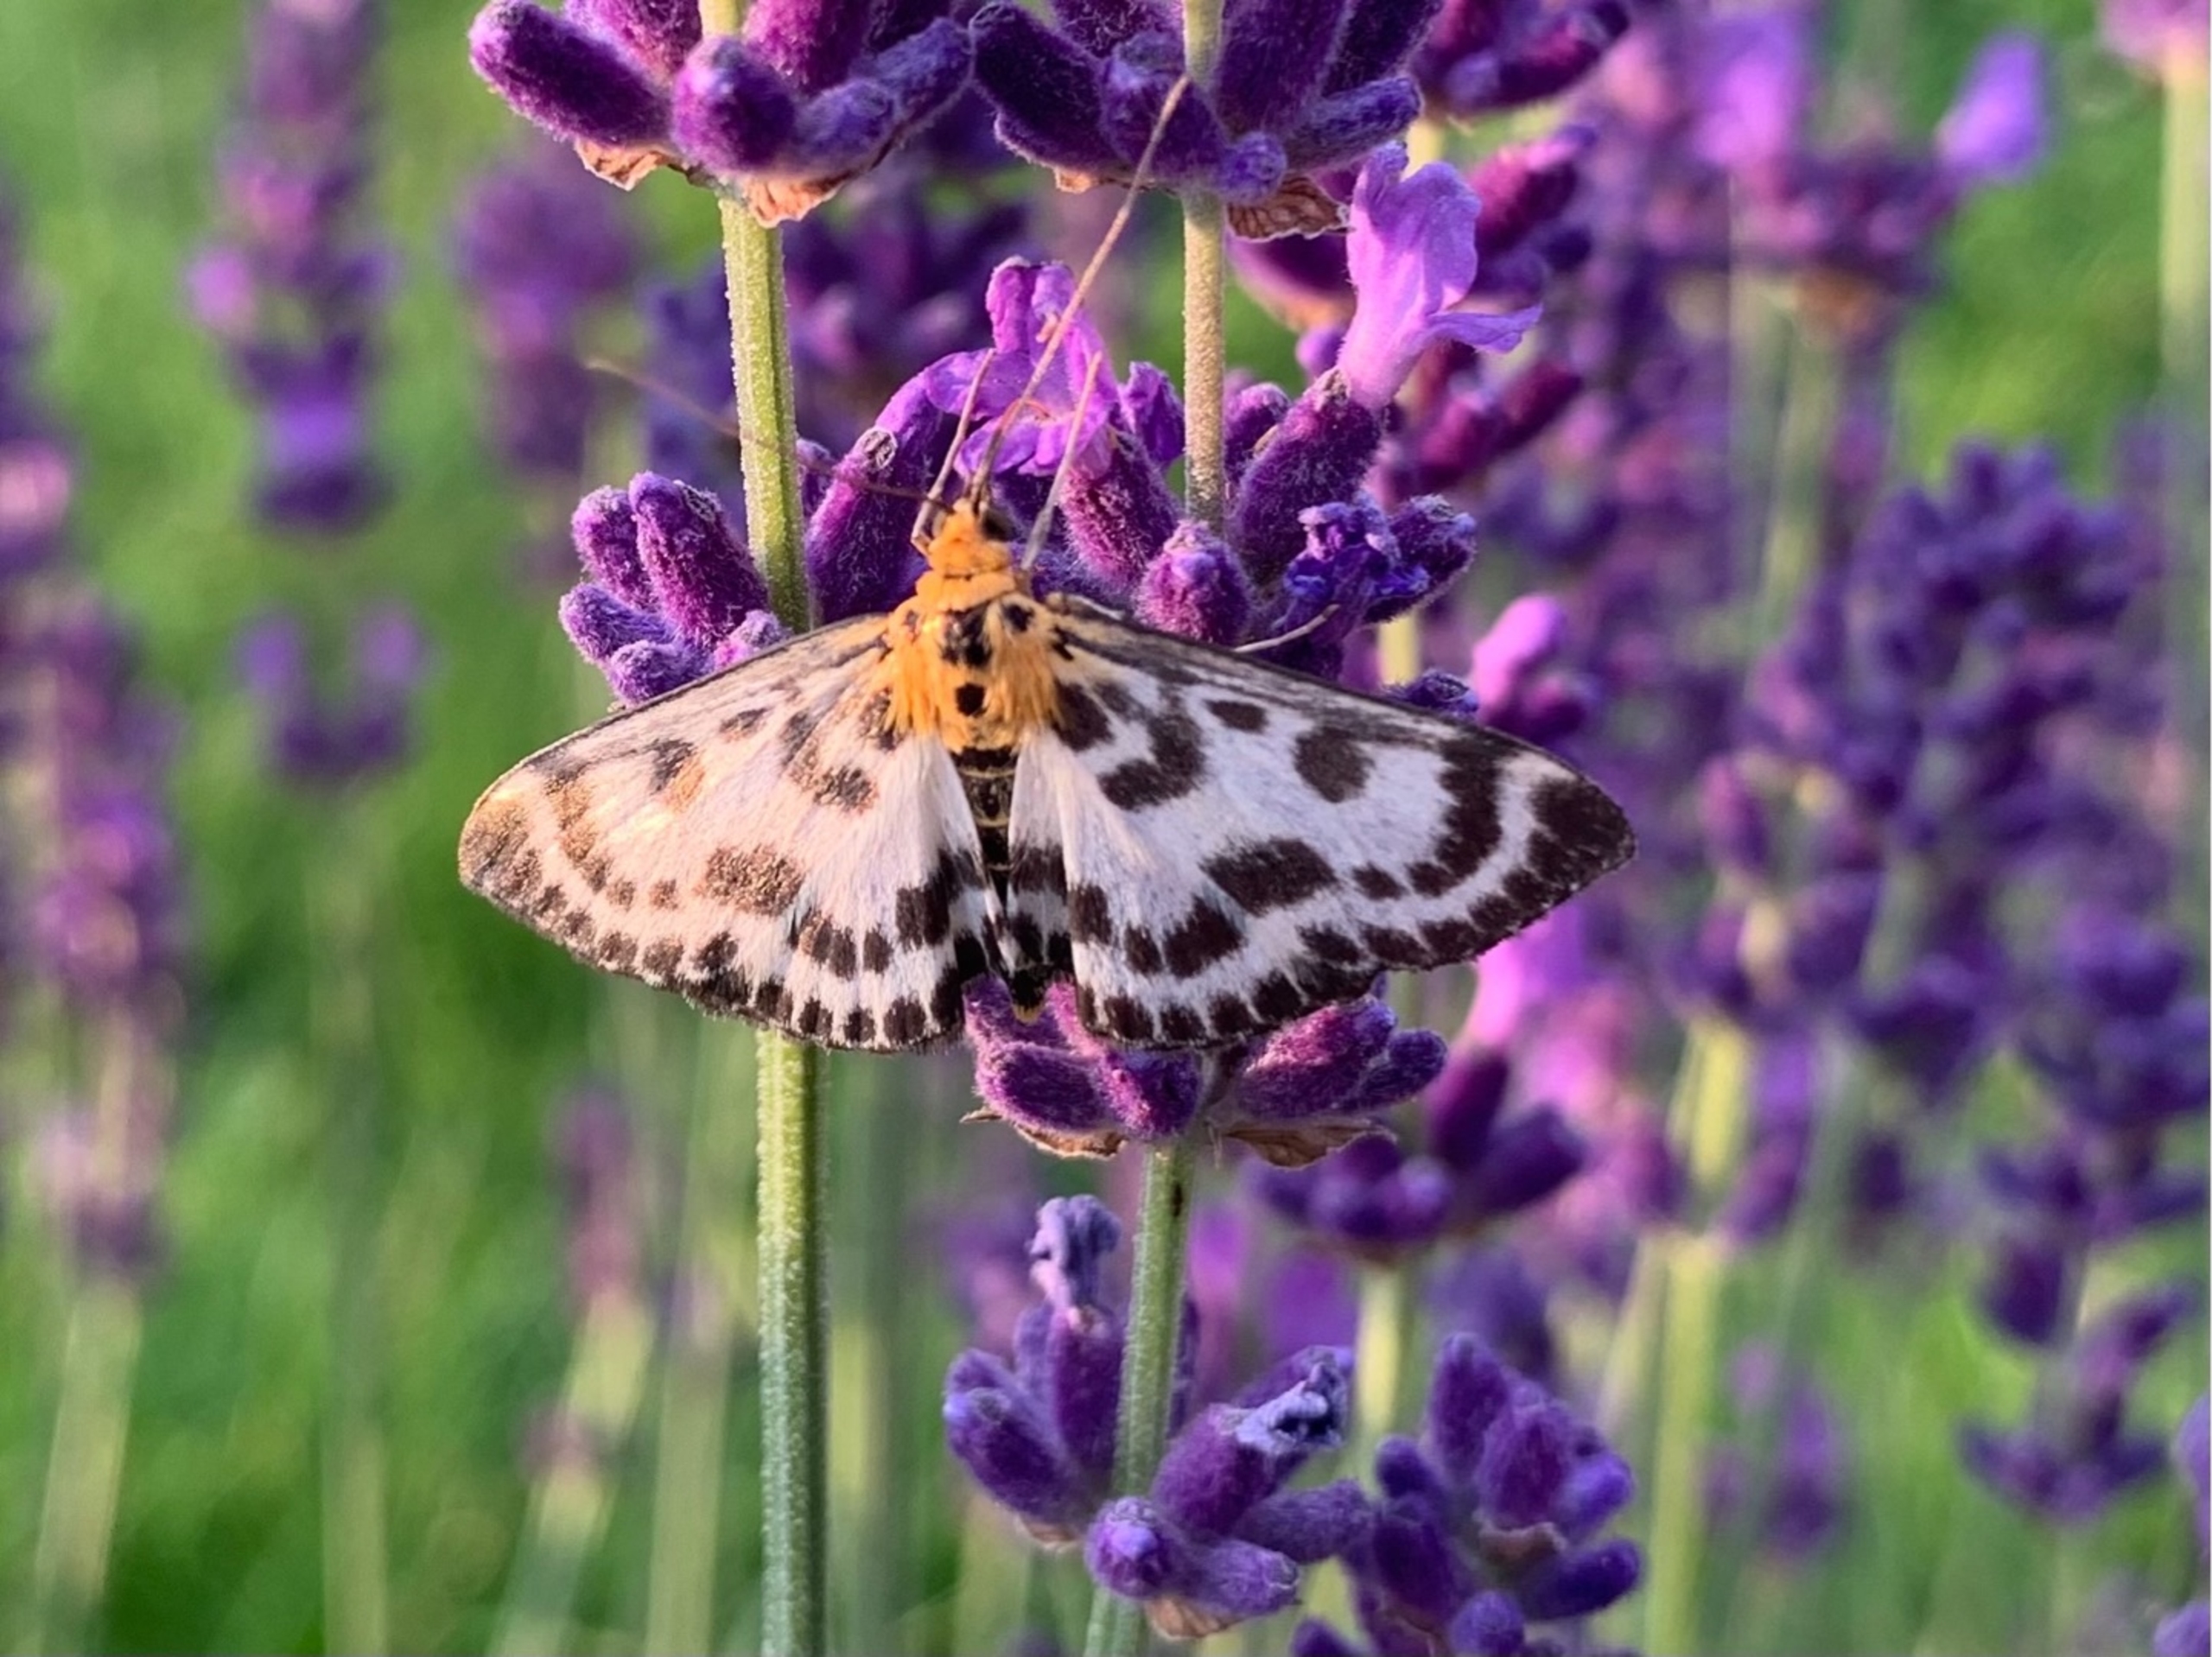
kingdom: Animalia
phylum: Arthropoda
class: Insecta
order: Lepidoptera
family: Crambidae
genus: Anania
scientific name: Anania hortulata
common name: Nældehalvmøl
